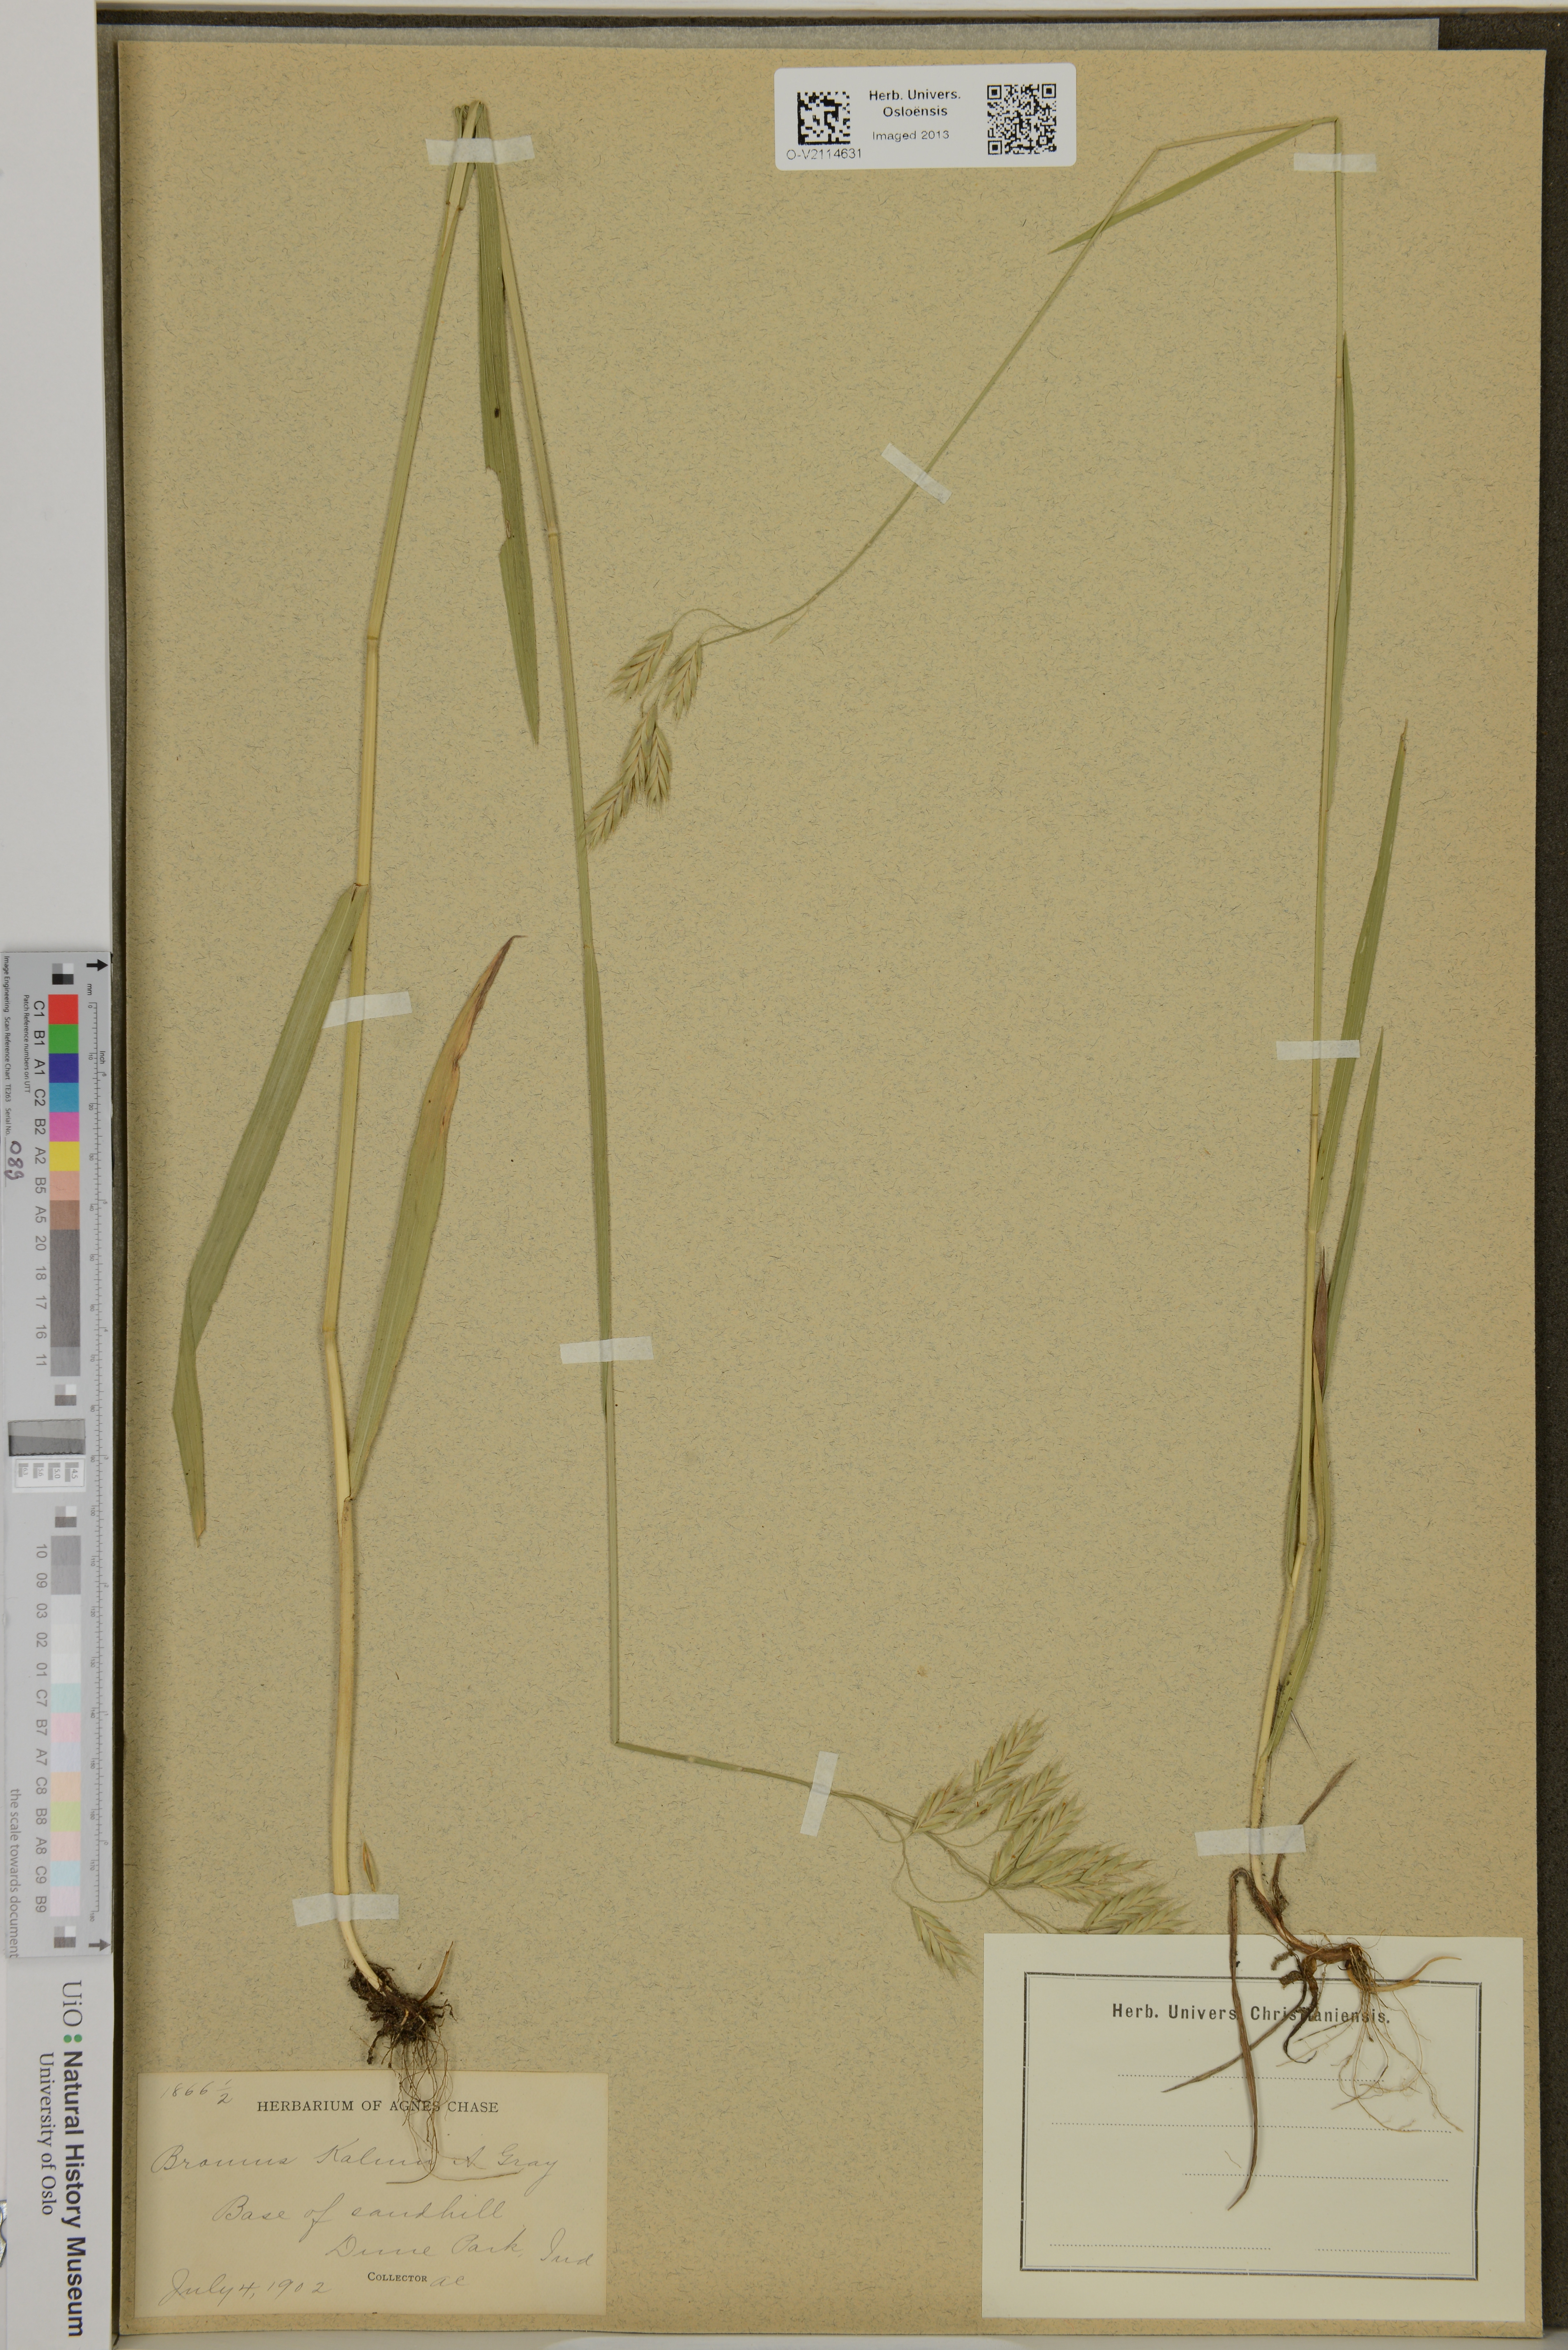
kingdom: Plantae
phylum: Tracheophyta
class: Liliopsida
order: Poales
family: Poaceae
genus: Bromus
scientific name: Bromus kalmii
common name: Kalm brome
